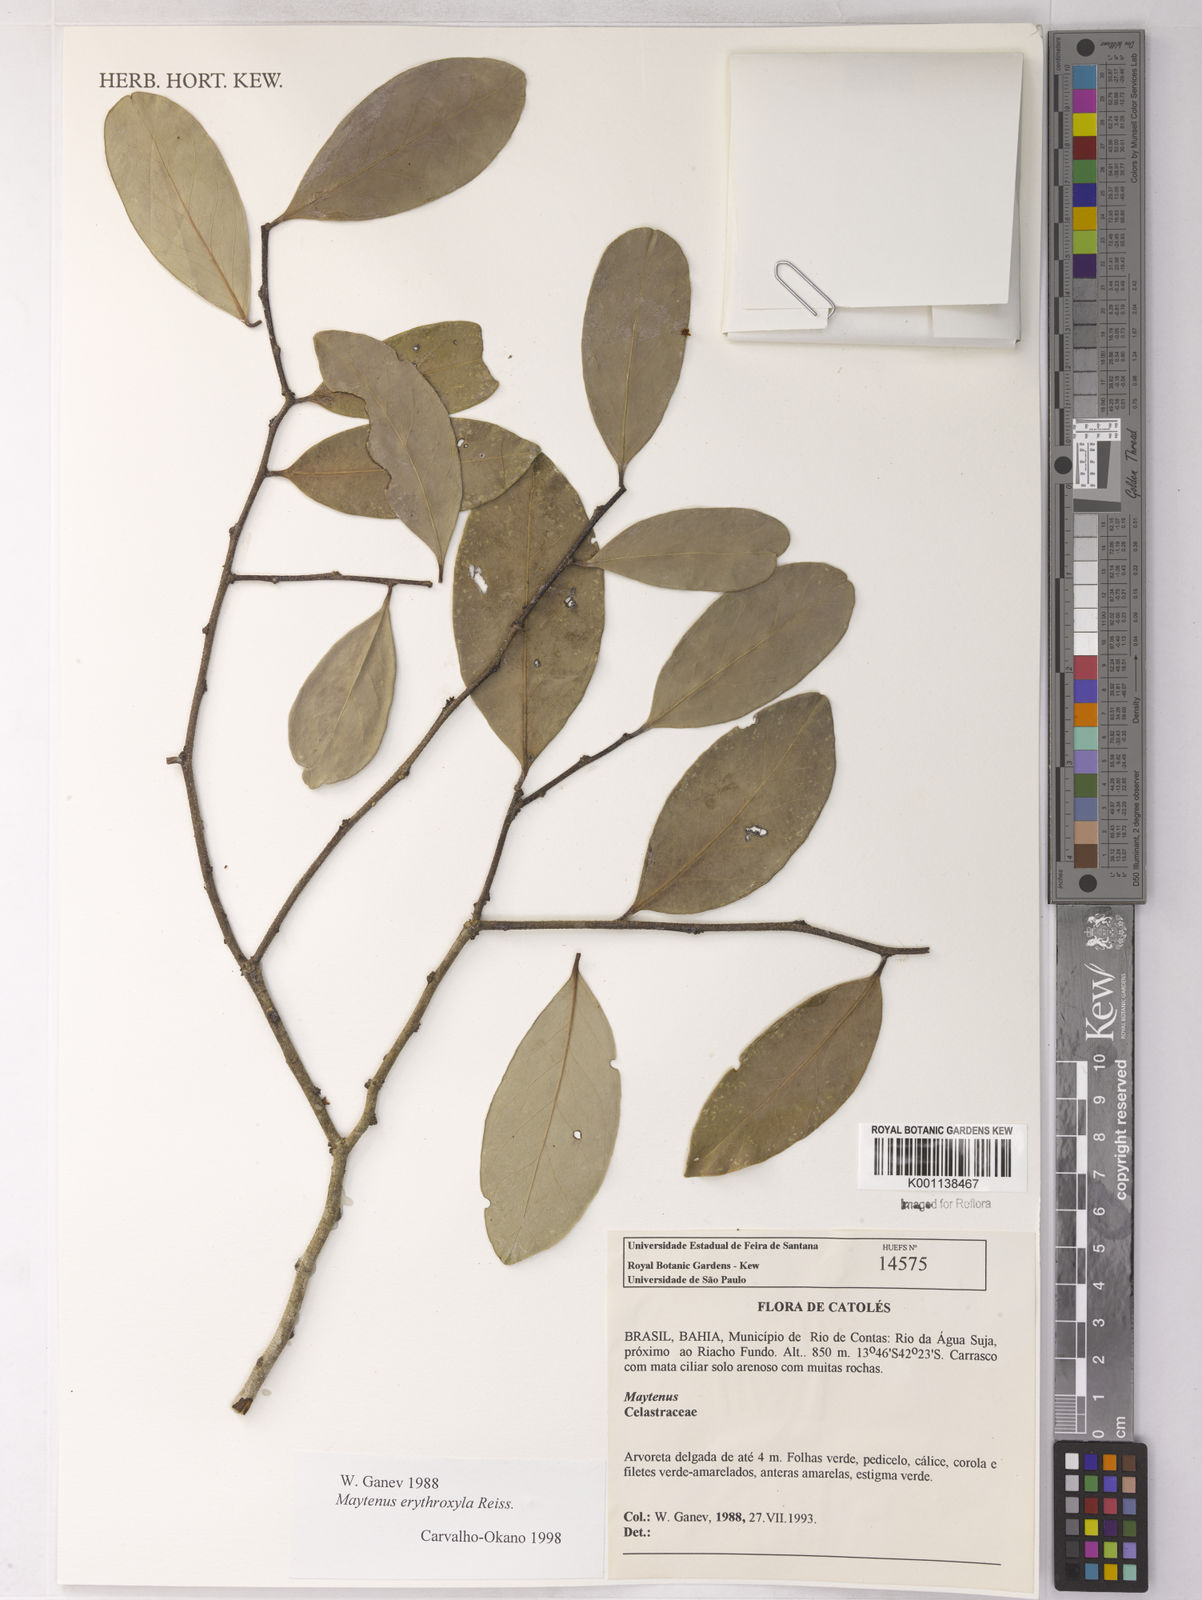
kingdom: Plantae
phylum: Tracheophyta
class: Magnoliopsida
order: Celastrales
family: Celastraceae
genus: Monteverdia
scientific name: Monteverdia erythroxylon
